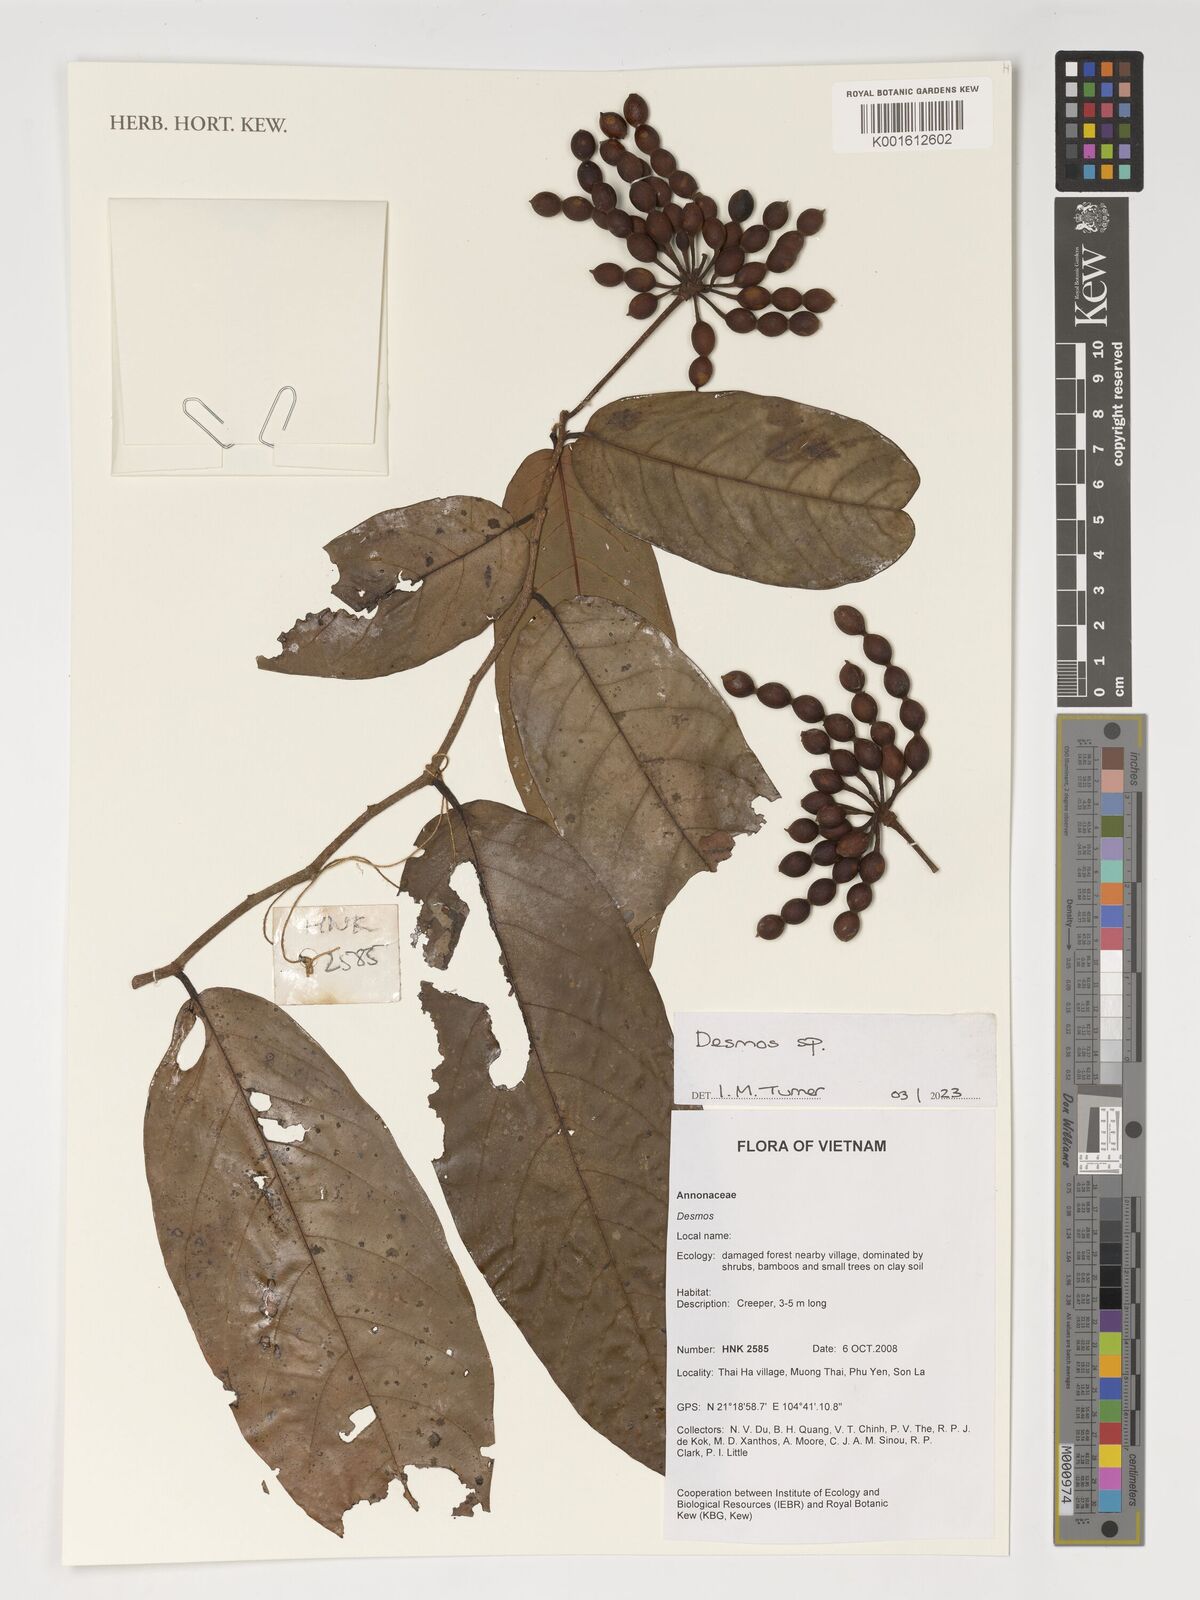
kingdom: Plantae
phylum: Tracheophyta
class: Magnoliopsida
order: Magnoliales
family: Annonaceae
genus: Desmos
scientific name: Desmos
